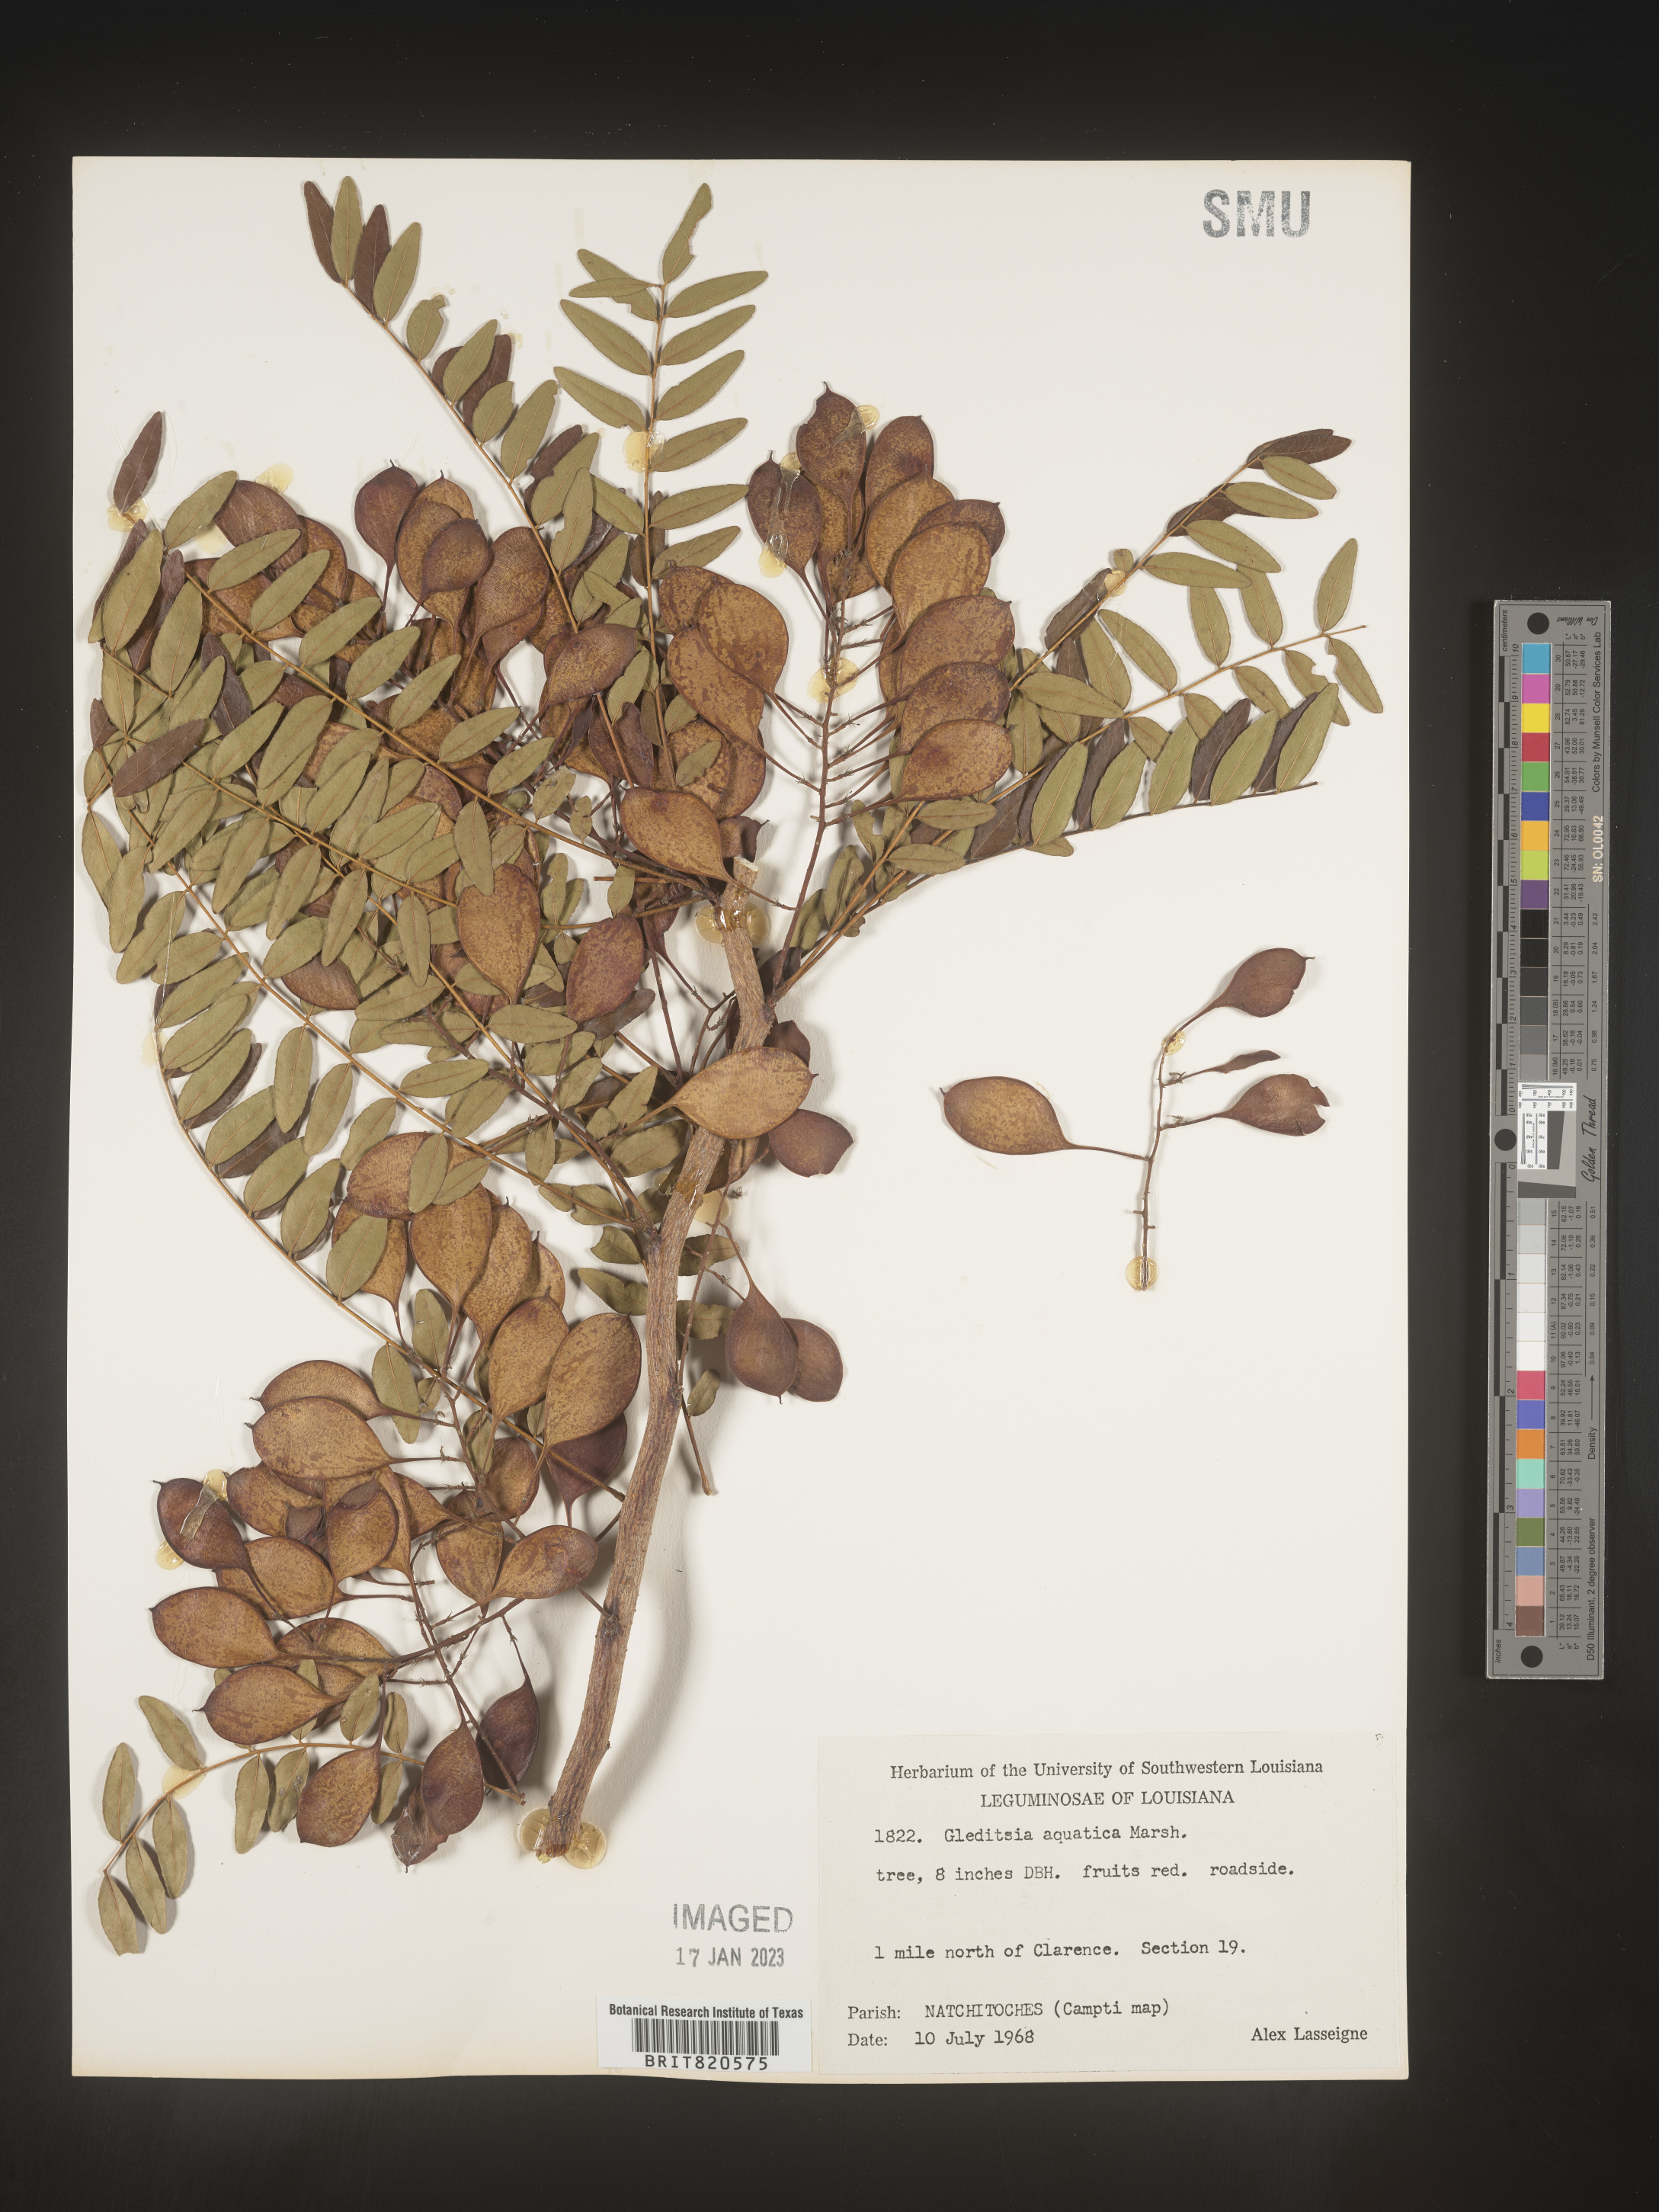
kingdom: Plantae
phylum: Tracheophyta
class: Magnoliopsida
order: Fabales
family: Fabaceae
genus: Gleditsia
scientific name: Gleditsia aquatica
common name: Swamp-locust
